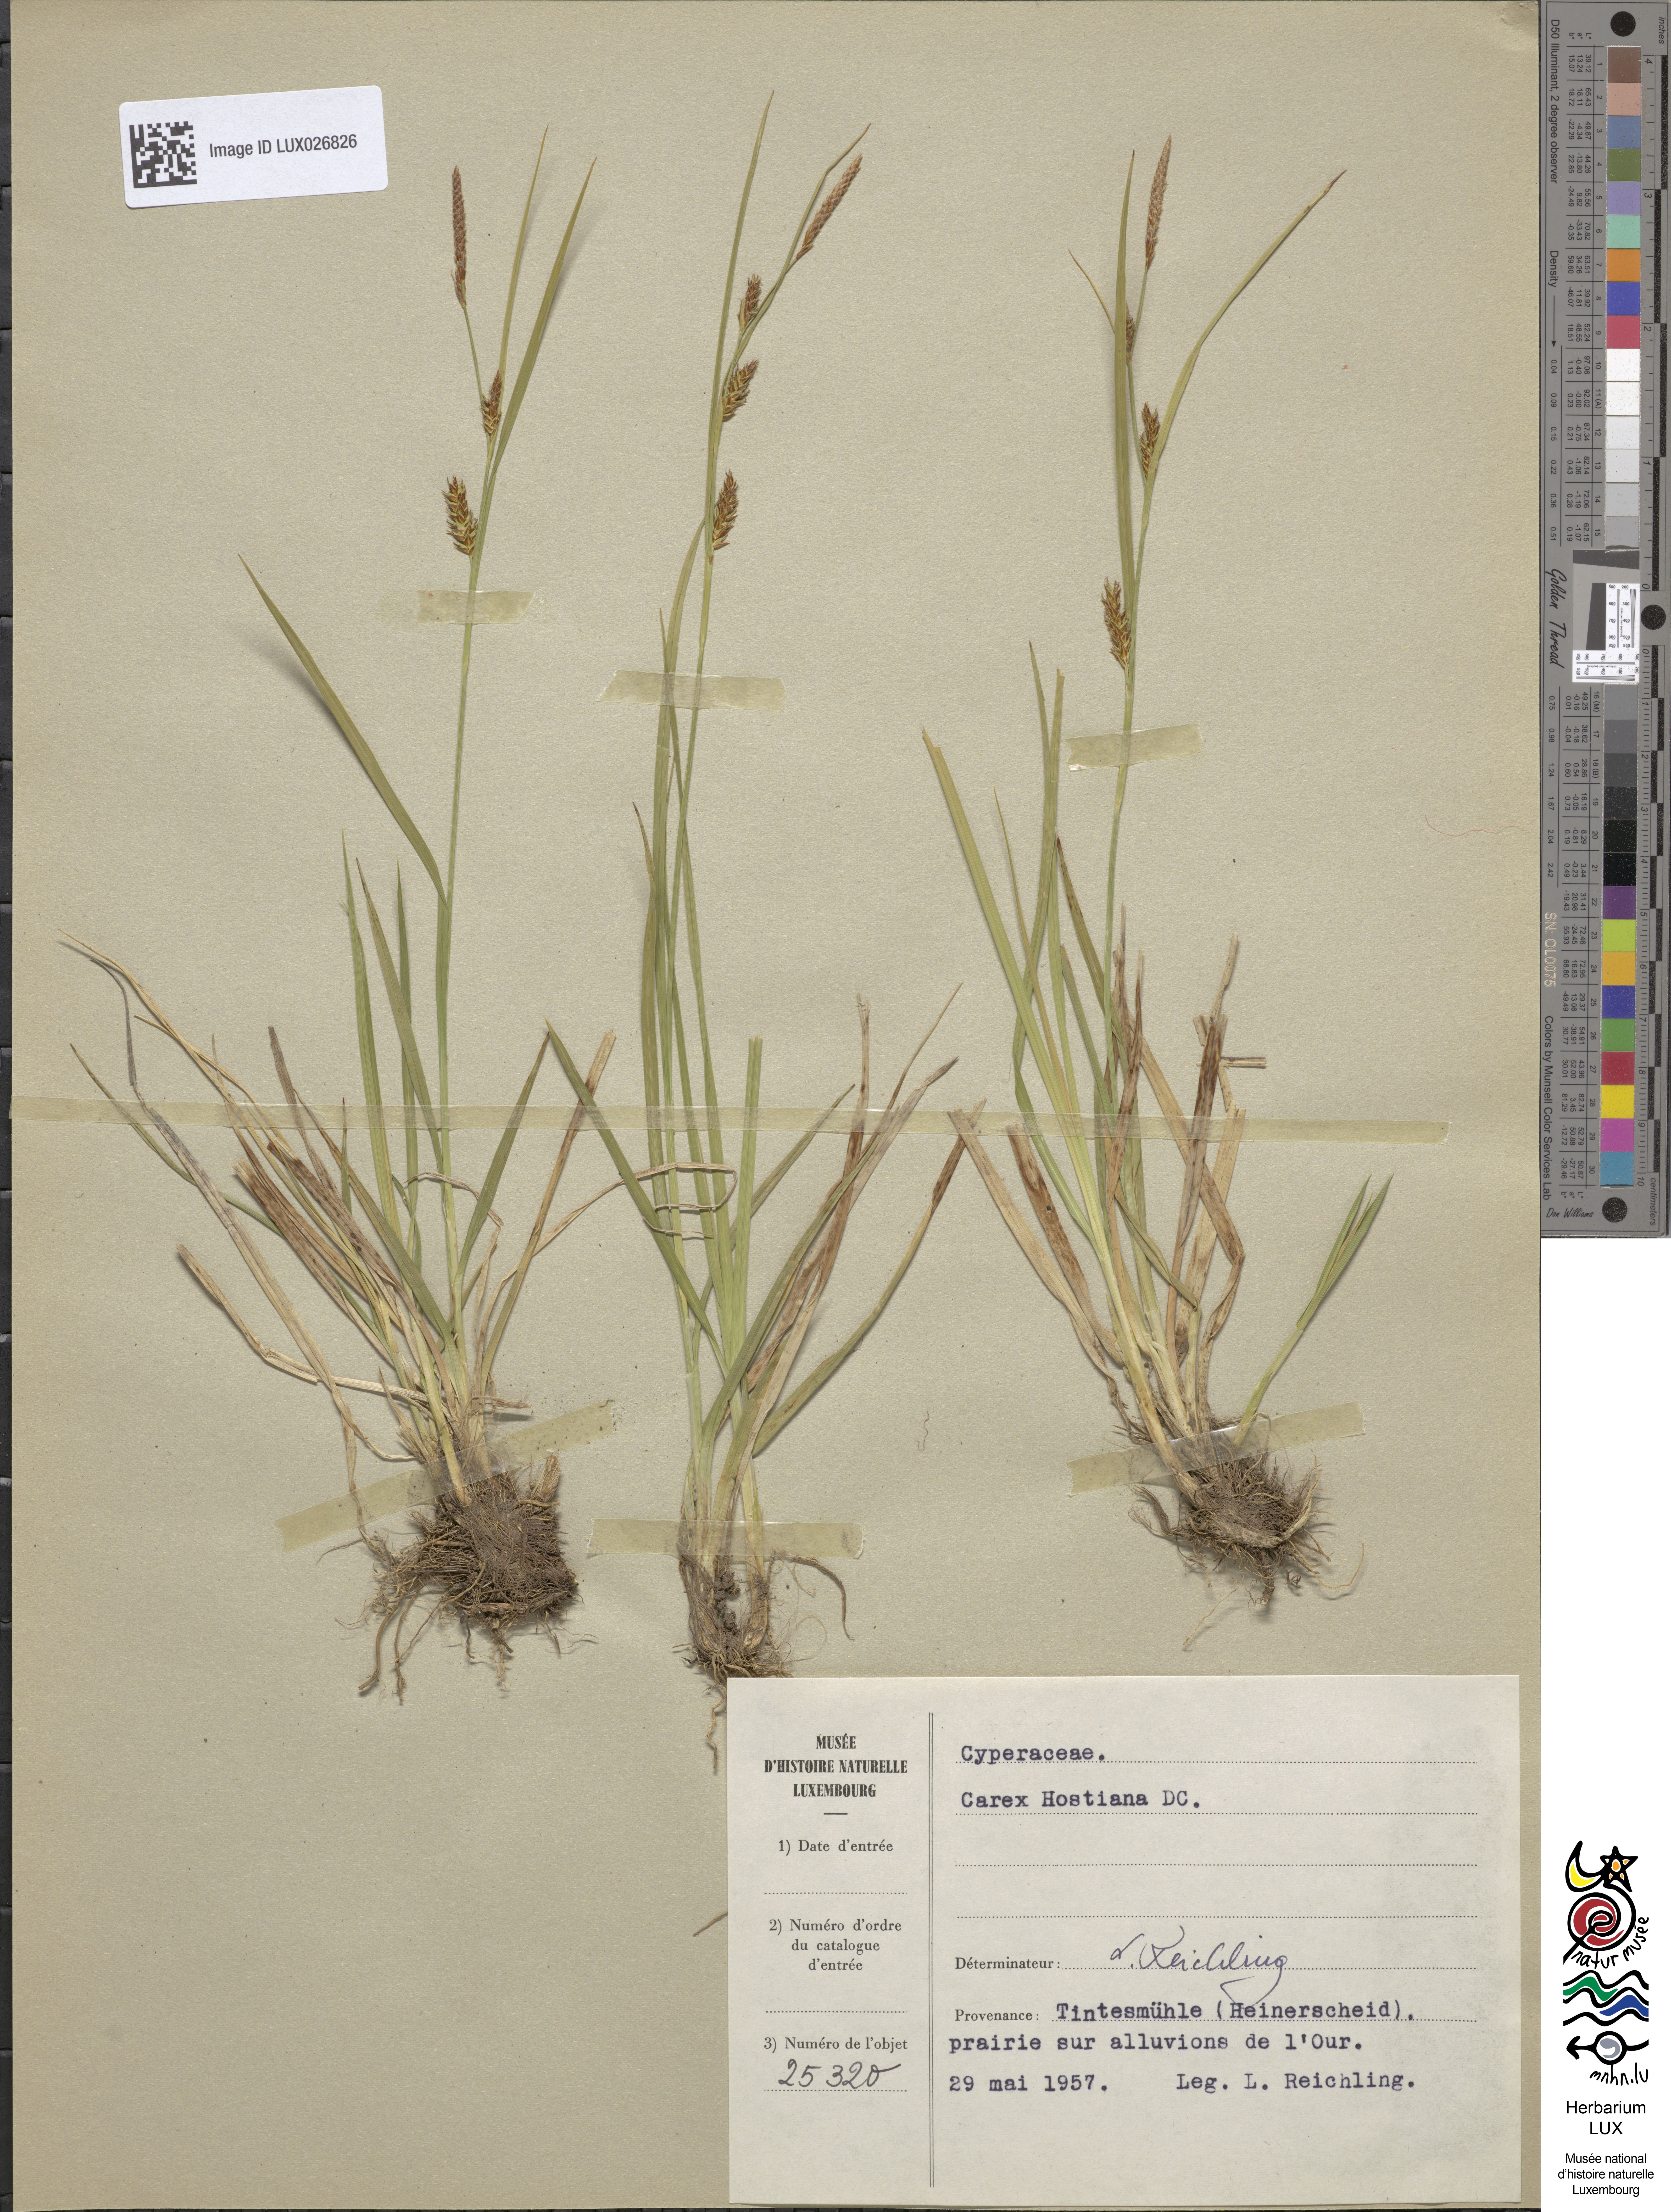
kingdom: Plantae
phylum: Tracheophyta
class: Liliopsida
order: Poales
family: Cyperaceae
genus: Carex
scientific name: Carex hostiana
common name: Tawny sedge
